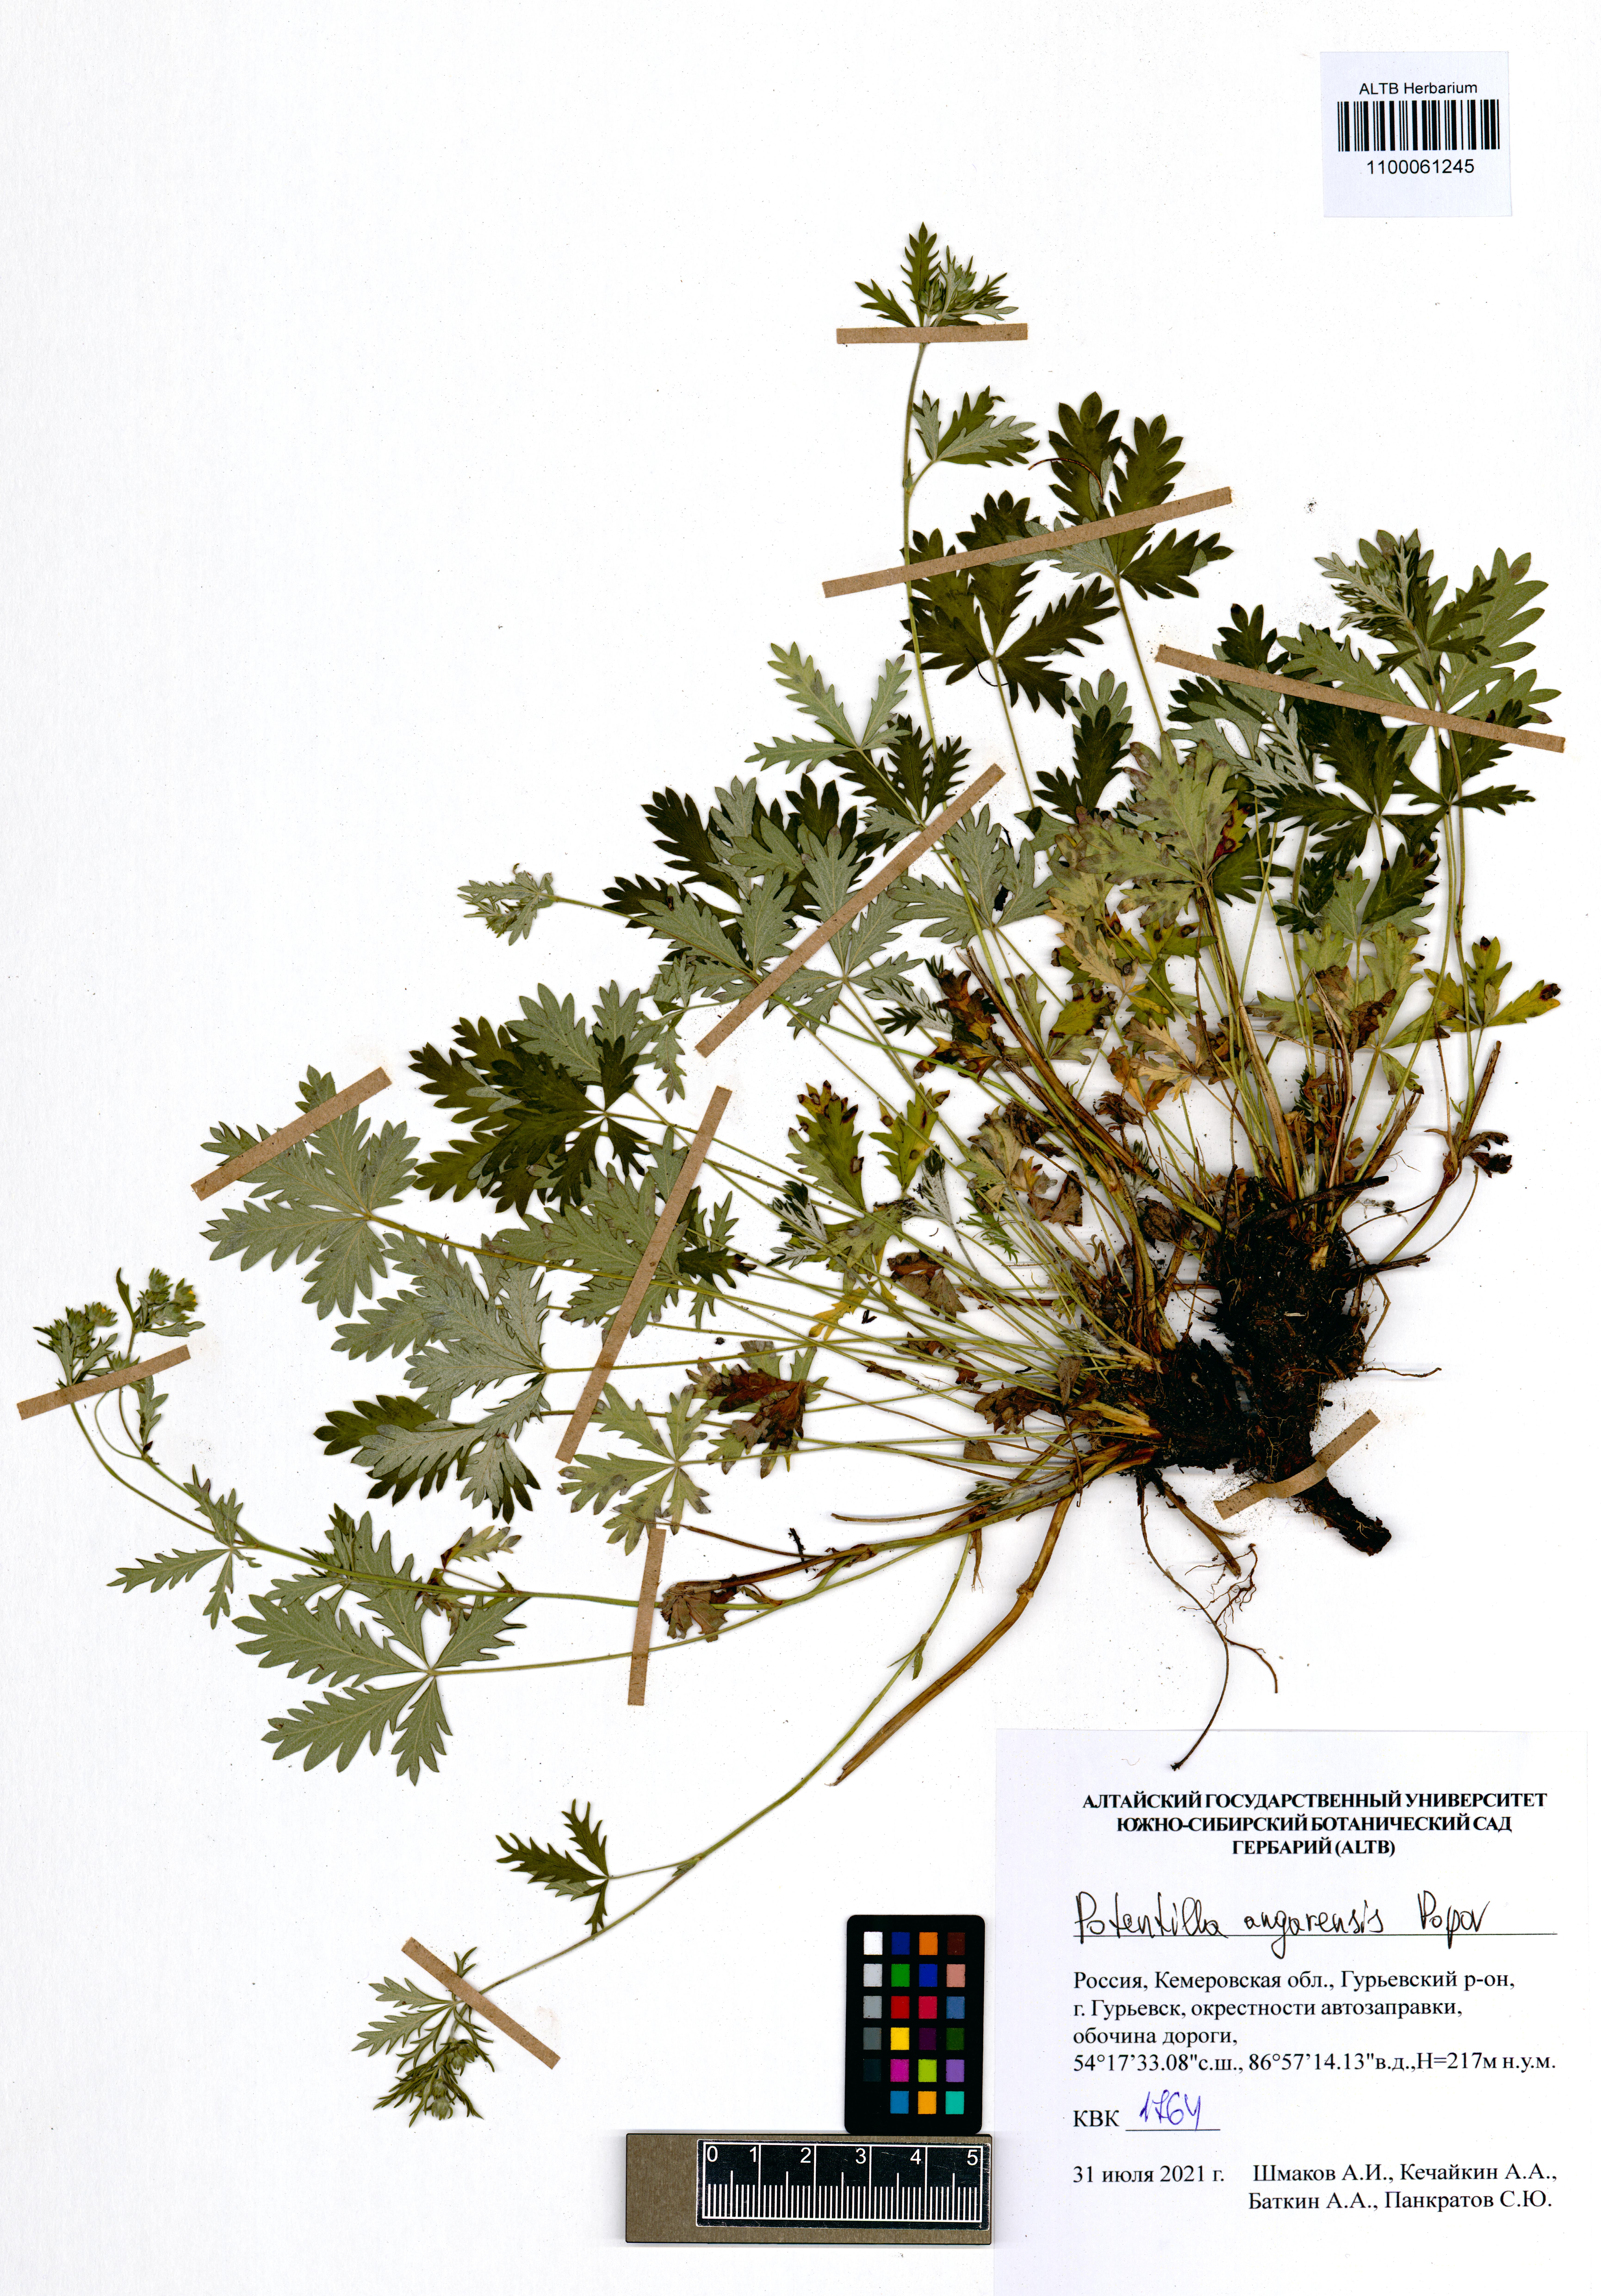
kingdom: Plantae
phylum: Tracheophyta
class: Magnoliopsida
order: Rosales
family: Rosaceae
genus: Potentilla
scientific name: Potentilla angarensis
